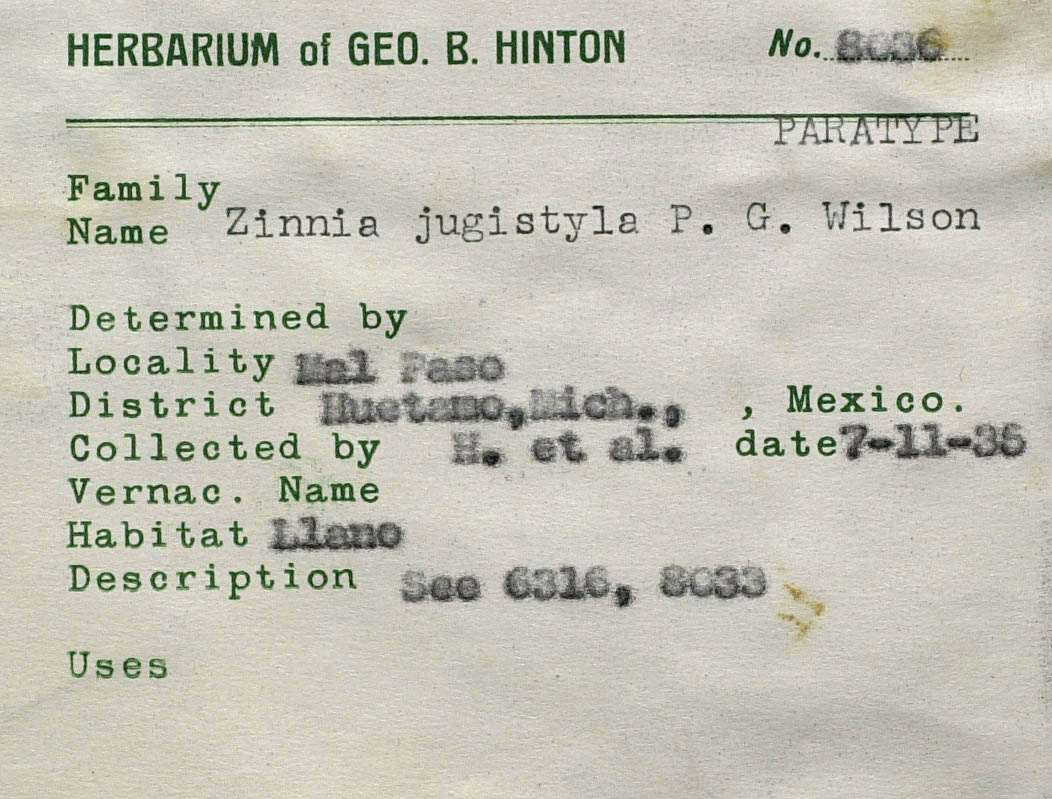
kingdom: Plantae
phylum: Tracheophyta
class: Magnoliopsida
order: Asterales
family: Asteraceae
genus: Zinnia
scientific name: Zinnia flavicoma
